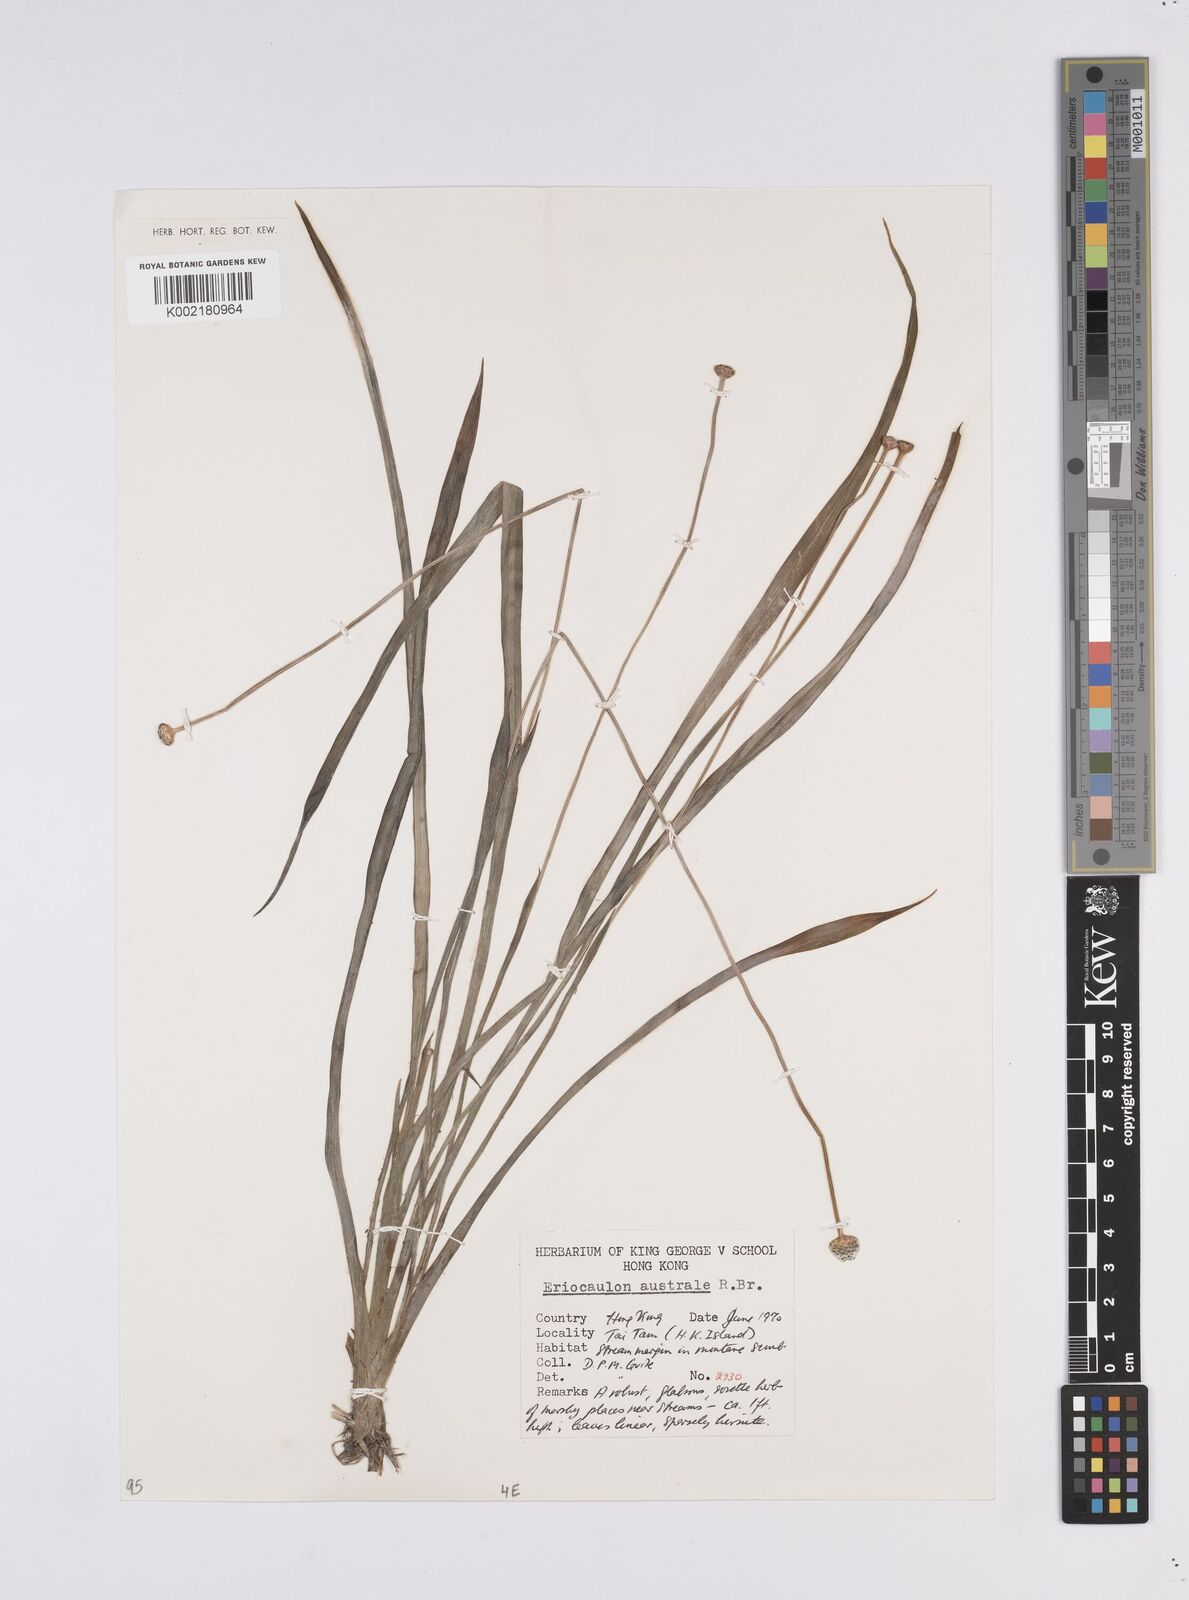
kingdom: Plantae
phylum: Tracheophyta
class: Liliopsida
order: Poales
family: Eriocaulaceae
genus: Eriocaulon
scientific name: Eriocaulon australe
